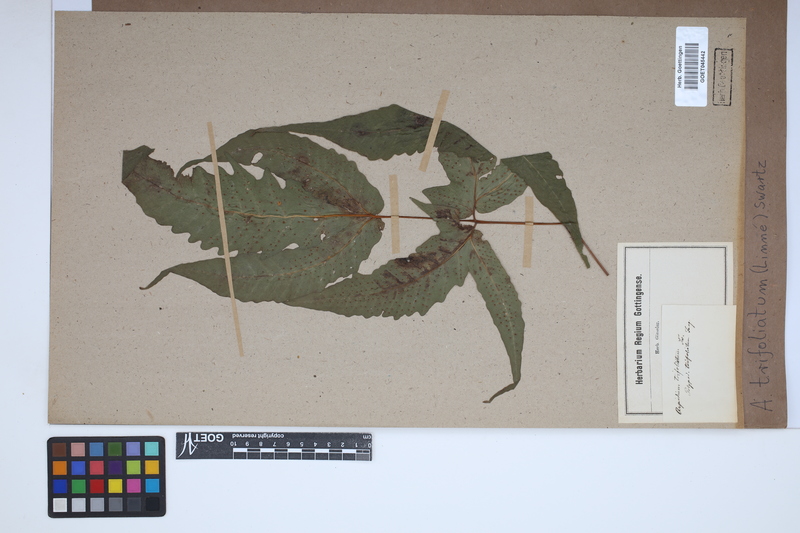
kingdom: Plantae
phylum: Tracheophyta
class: Polypodiopsida
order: Polypodiales
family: Tectariaceae
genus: Tectaria
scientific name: Tectaria trifoliata
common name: Threeleaf halberd fern
